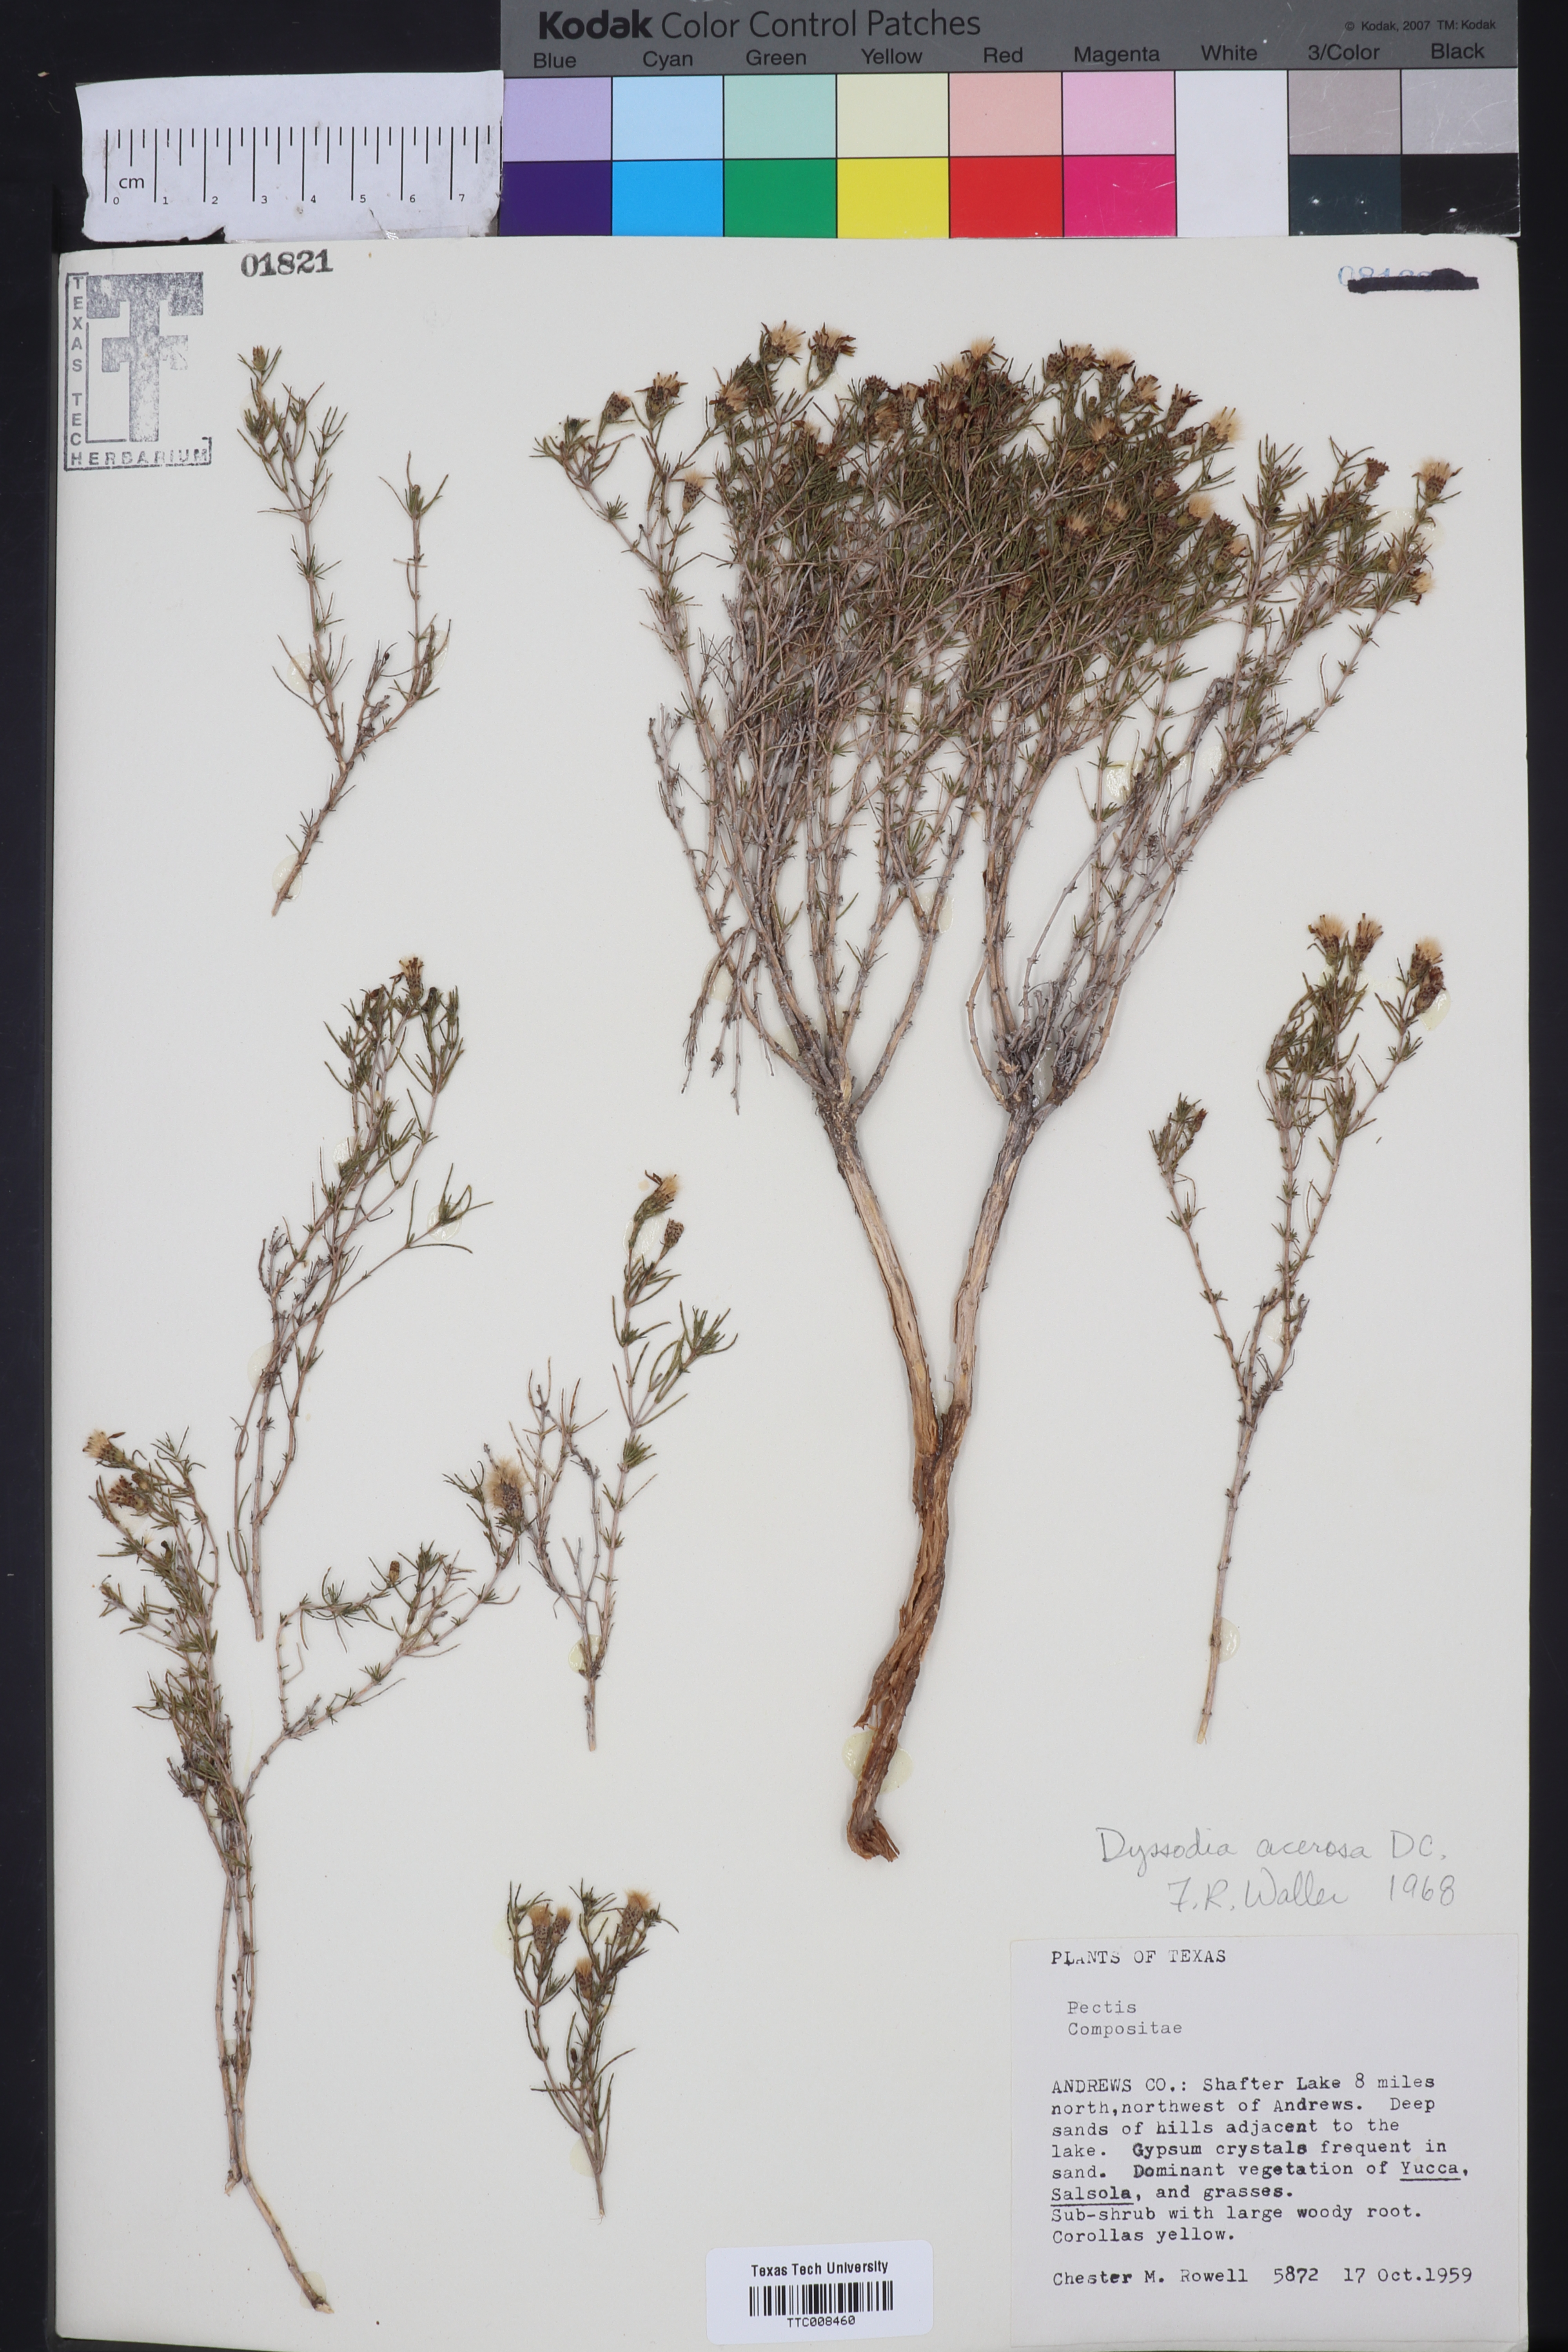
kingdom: Plantae
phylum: Tracheophyta
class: Magnoliopsida
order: Asterales
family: Asteraceae
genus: Thymophylla
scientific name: Thymophylla acerosa
